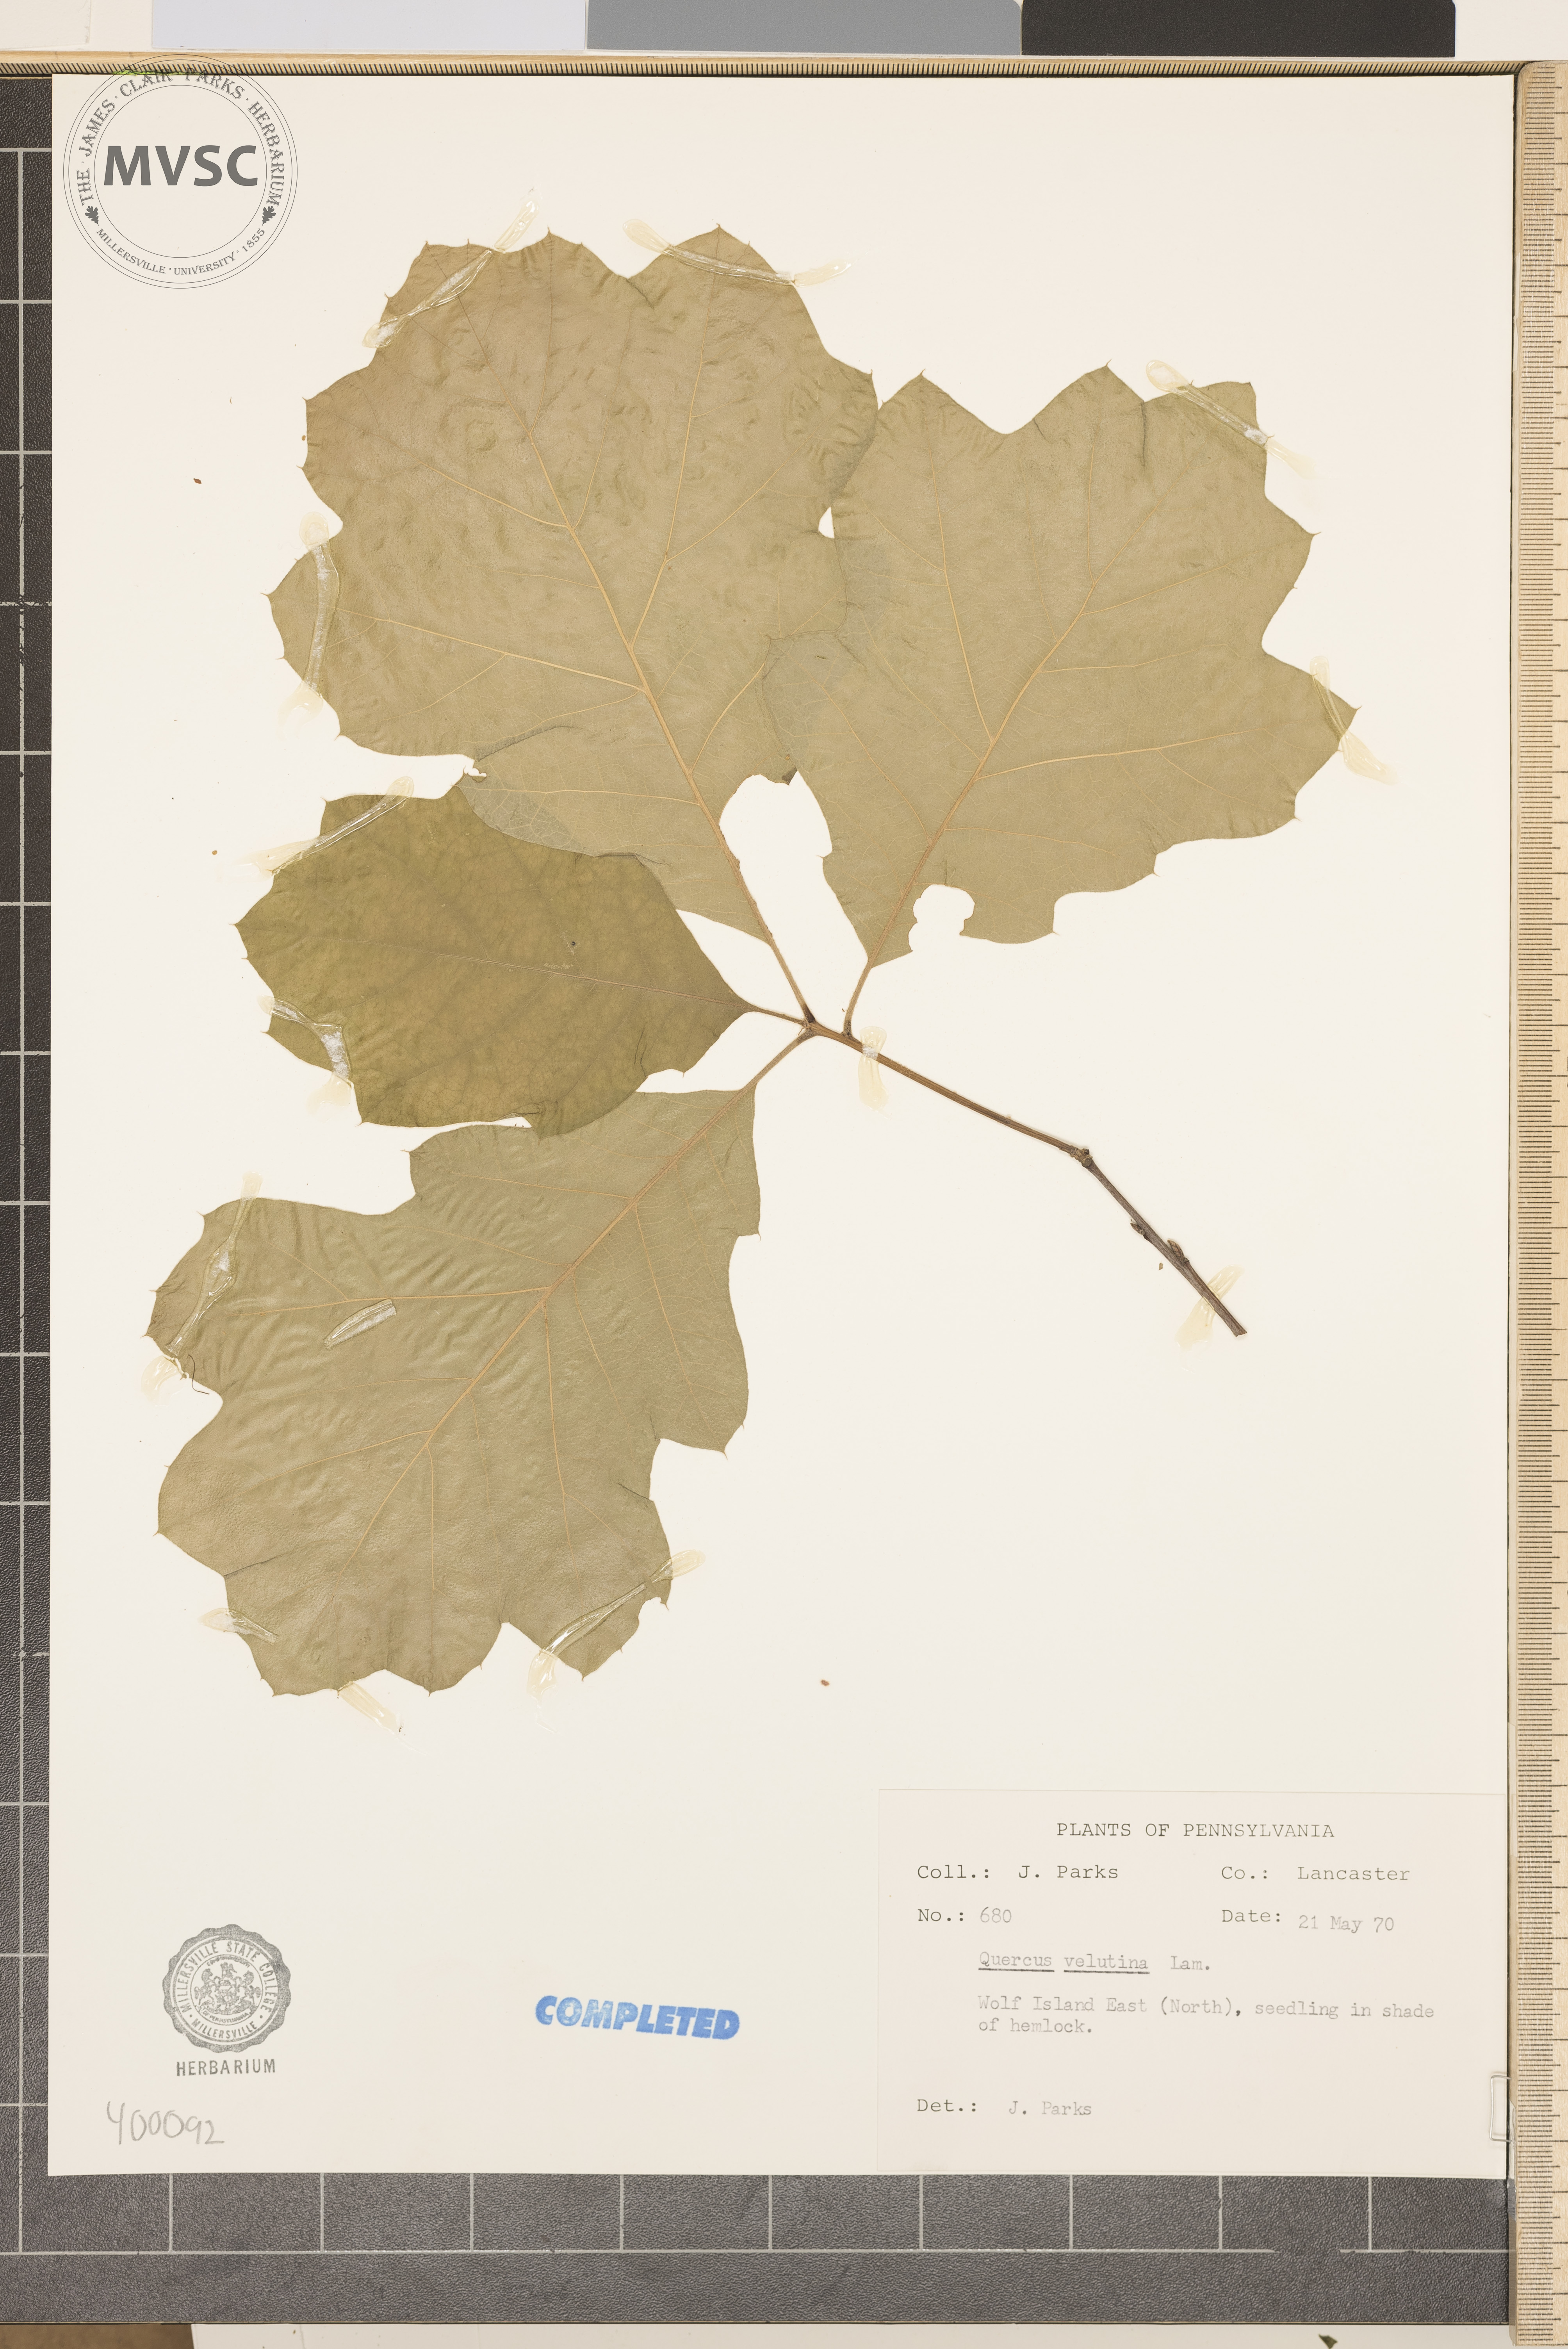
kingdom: Plantae
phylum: Tracheophyta
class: Magnoliopsida
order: Fagales
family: Fagaceae
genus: Quercus
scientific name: Quercus velutina
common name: black oak
